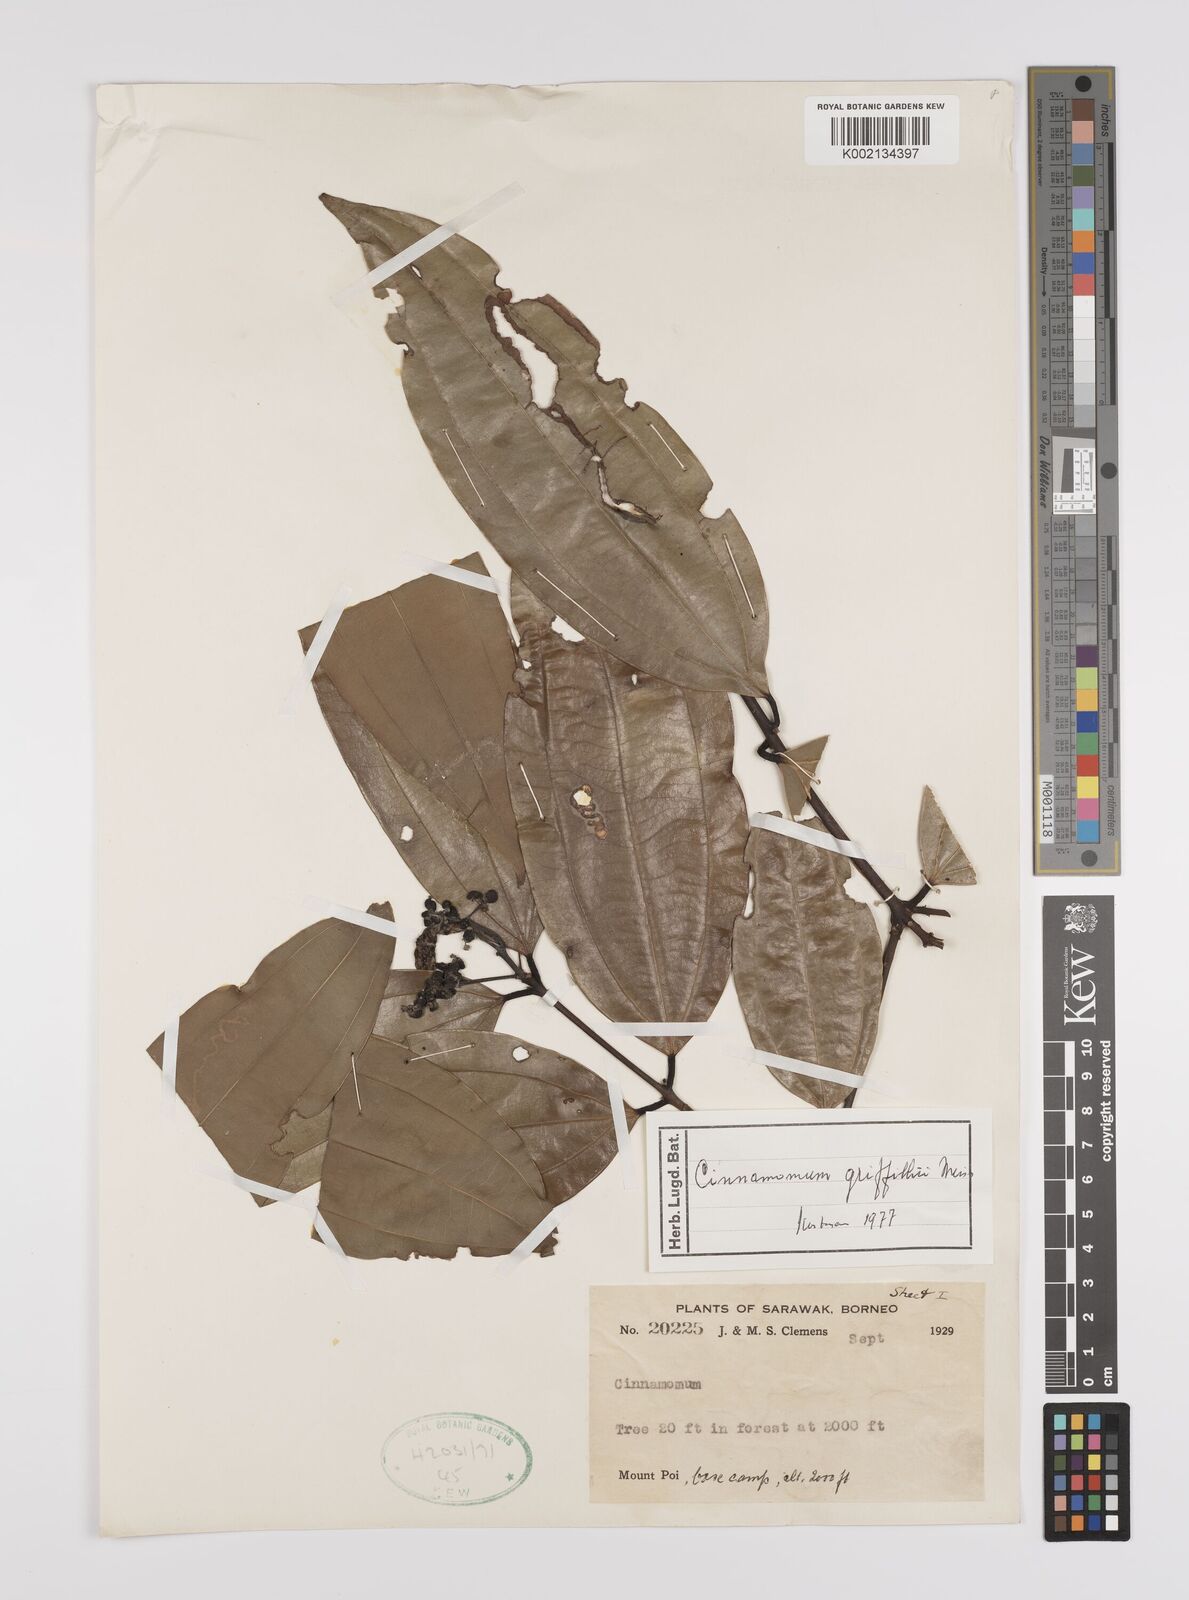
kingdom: Plantae
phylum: Tracheophyta
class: Magnoliopsida
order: Laurales
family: Lauraceae
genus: Cinnamomum
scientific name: Cinnamomum iners
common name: Wild cinnamon
